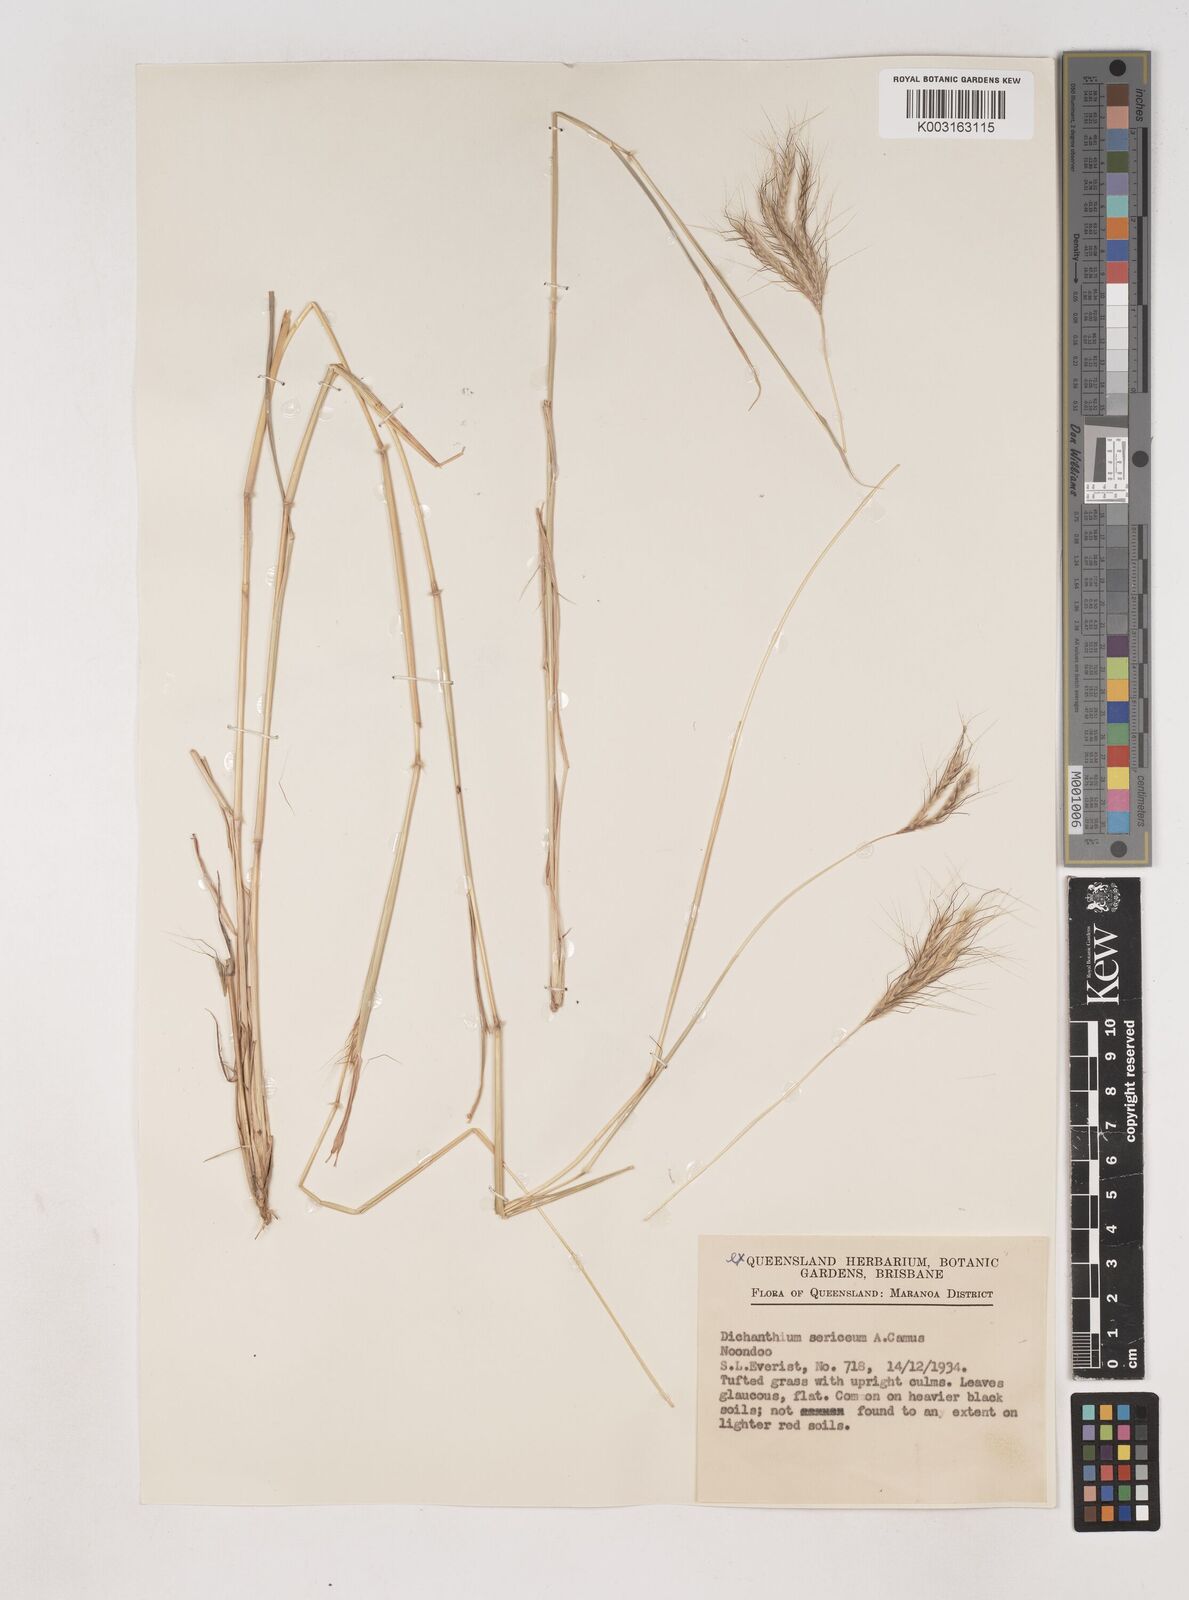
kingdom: Plantae
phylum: Tracheophyta
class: Liliopsida
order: Poales
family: Poaceae
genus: Dichanthium
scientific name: Dichanthium sericeum
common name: Silky bluestem
